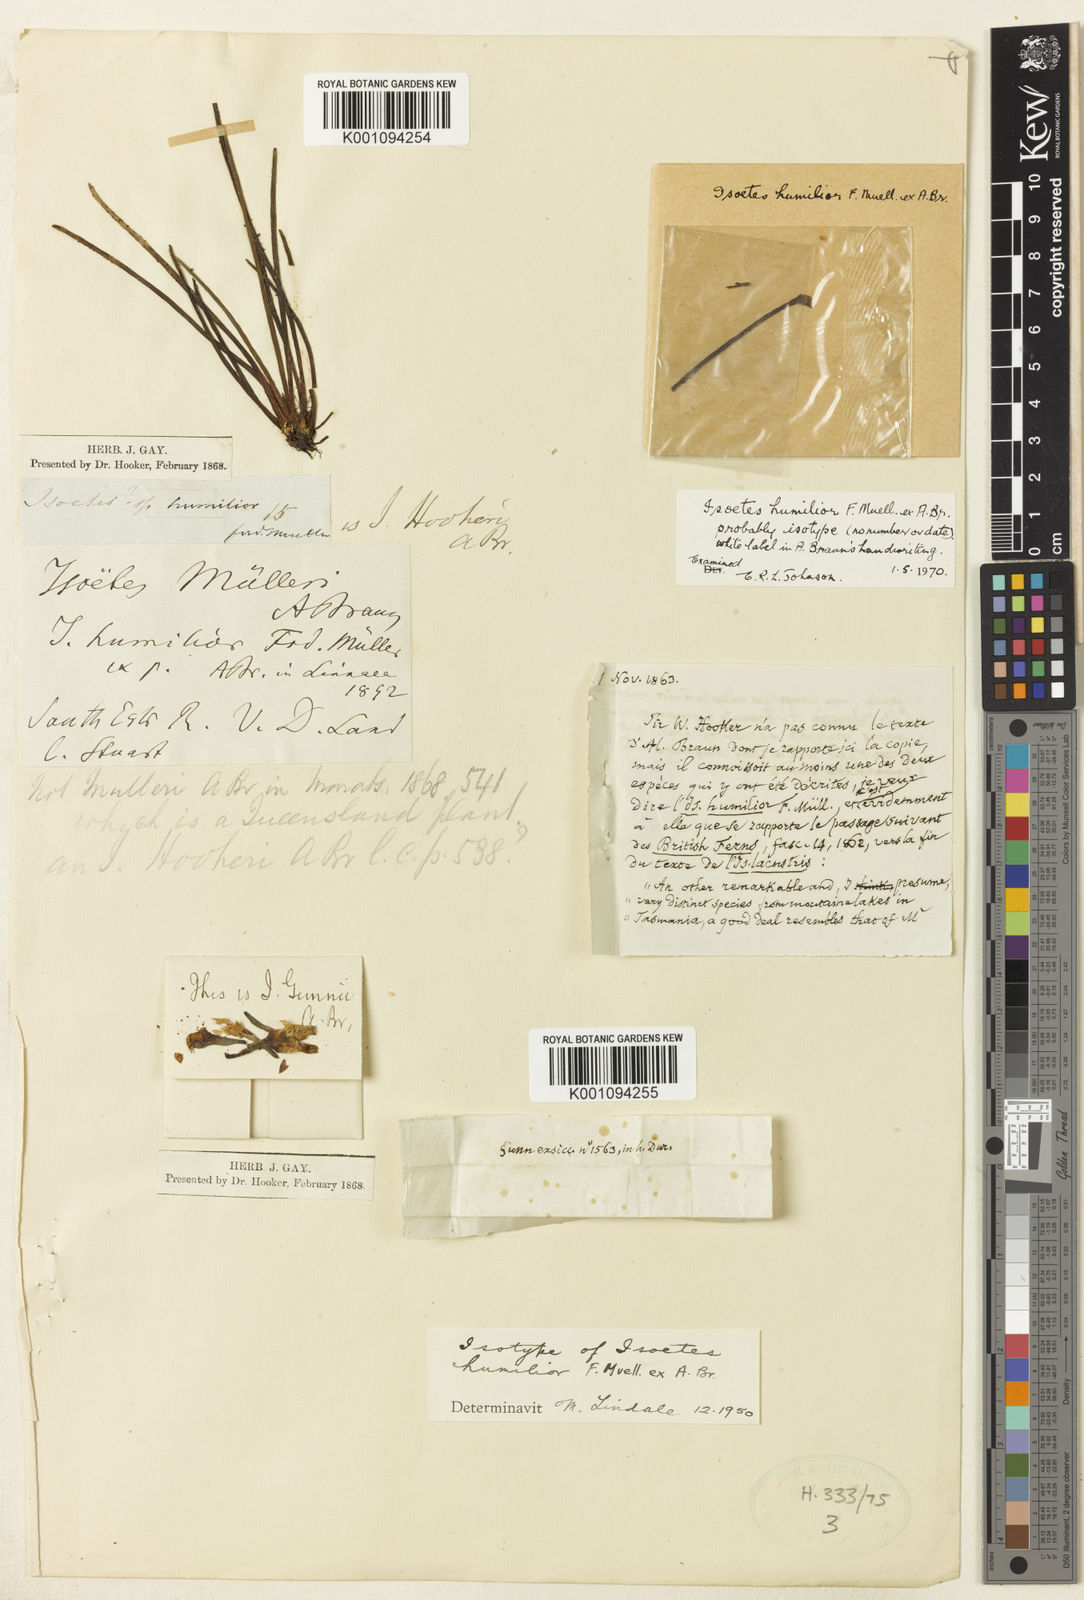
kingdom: Plantae
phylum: Tracheophyta
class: Lycopodiopsida
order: Isoetales
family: Isoetaceae
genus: Isoetes
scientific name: Isoetes humilior
